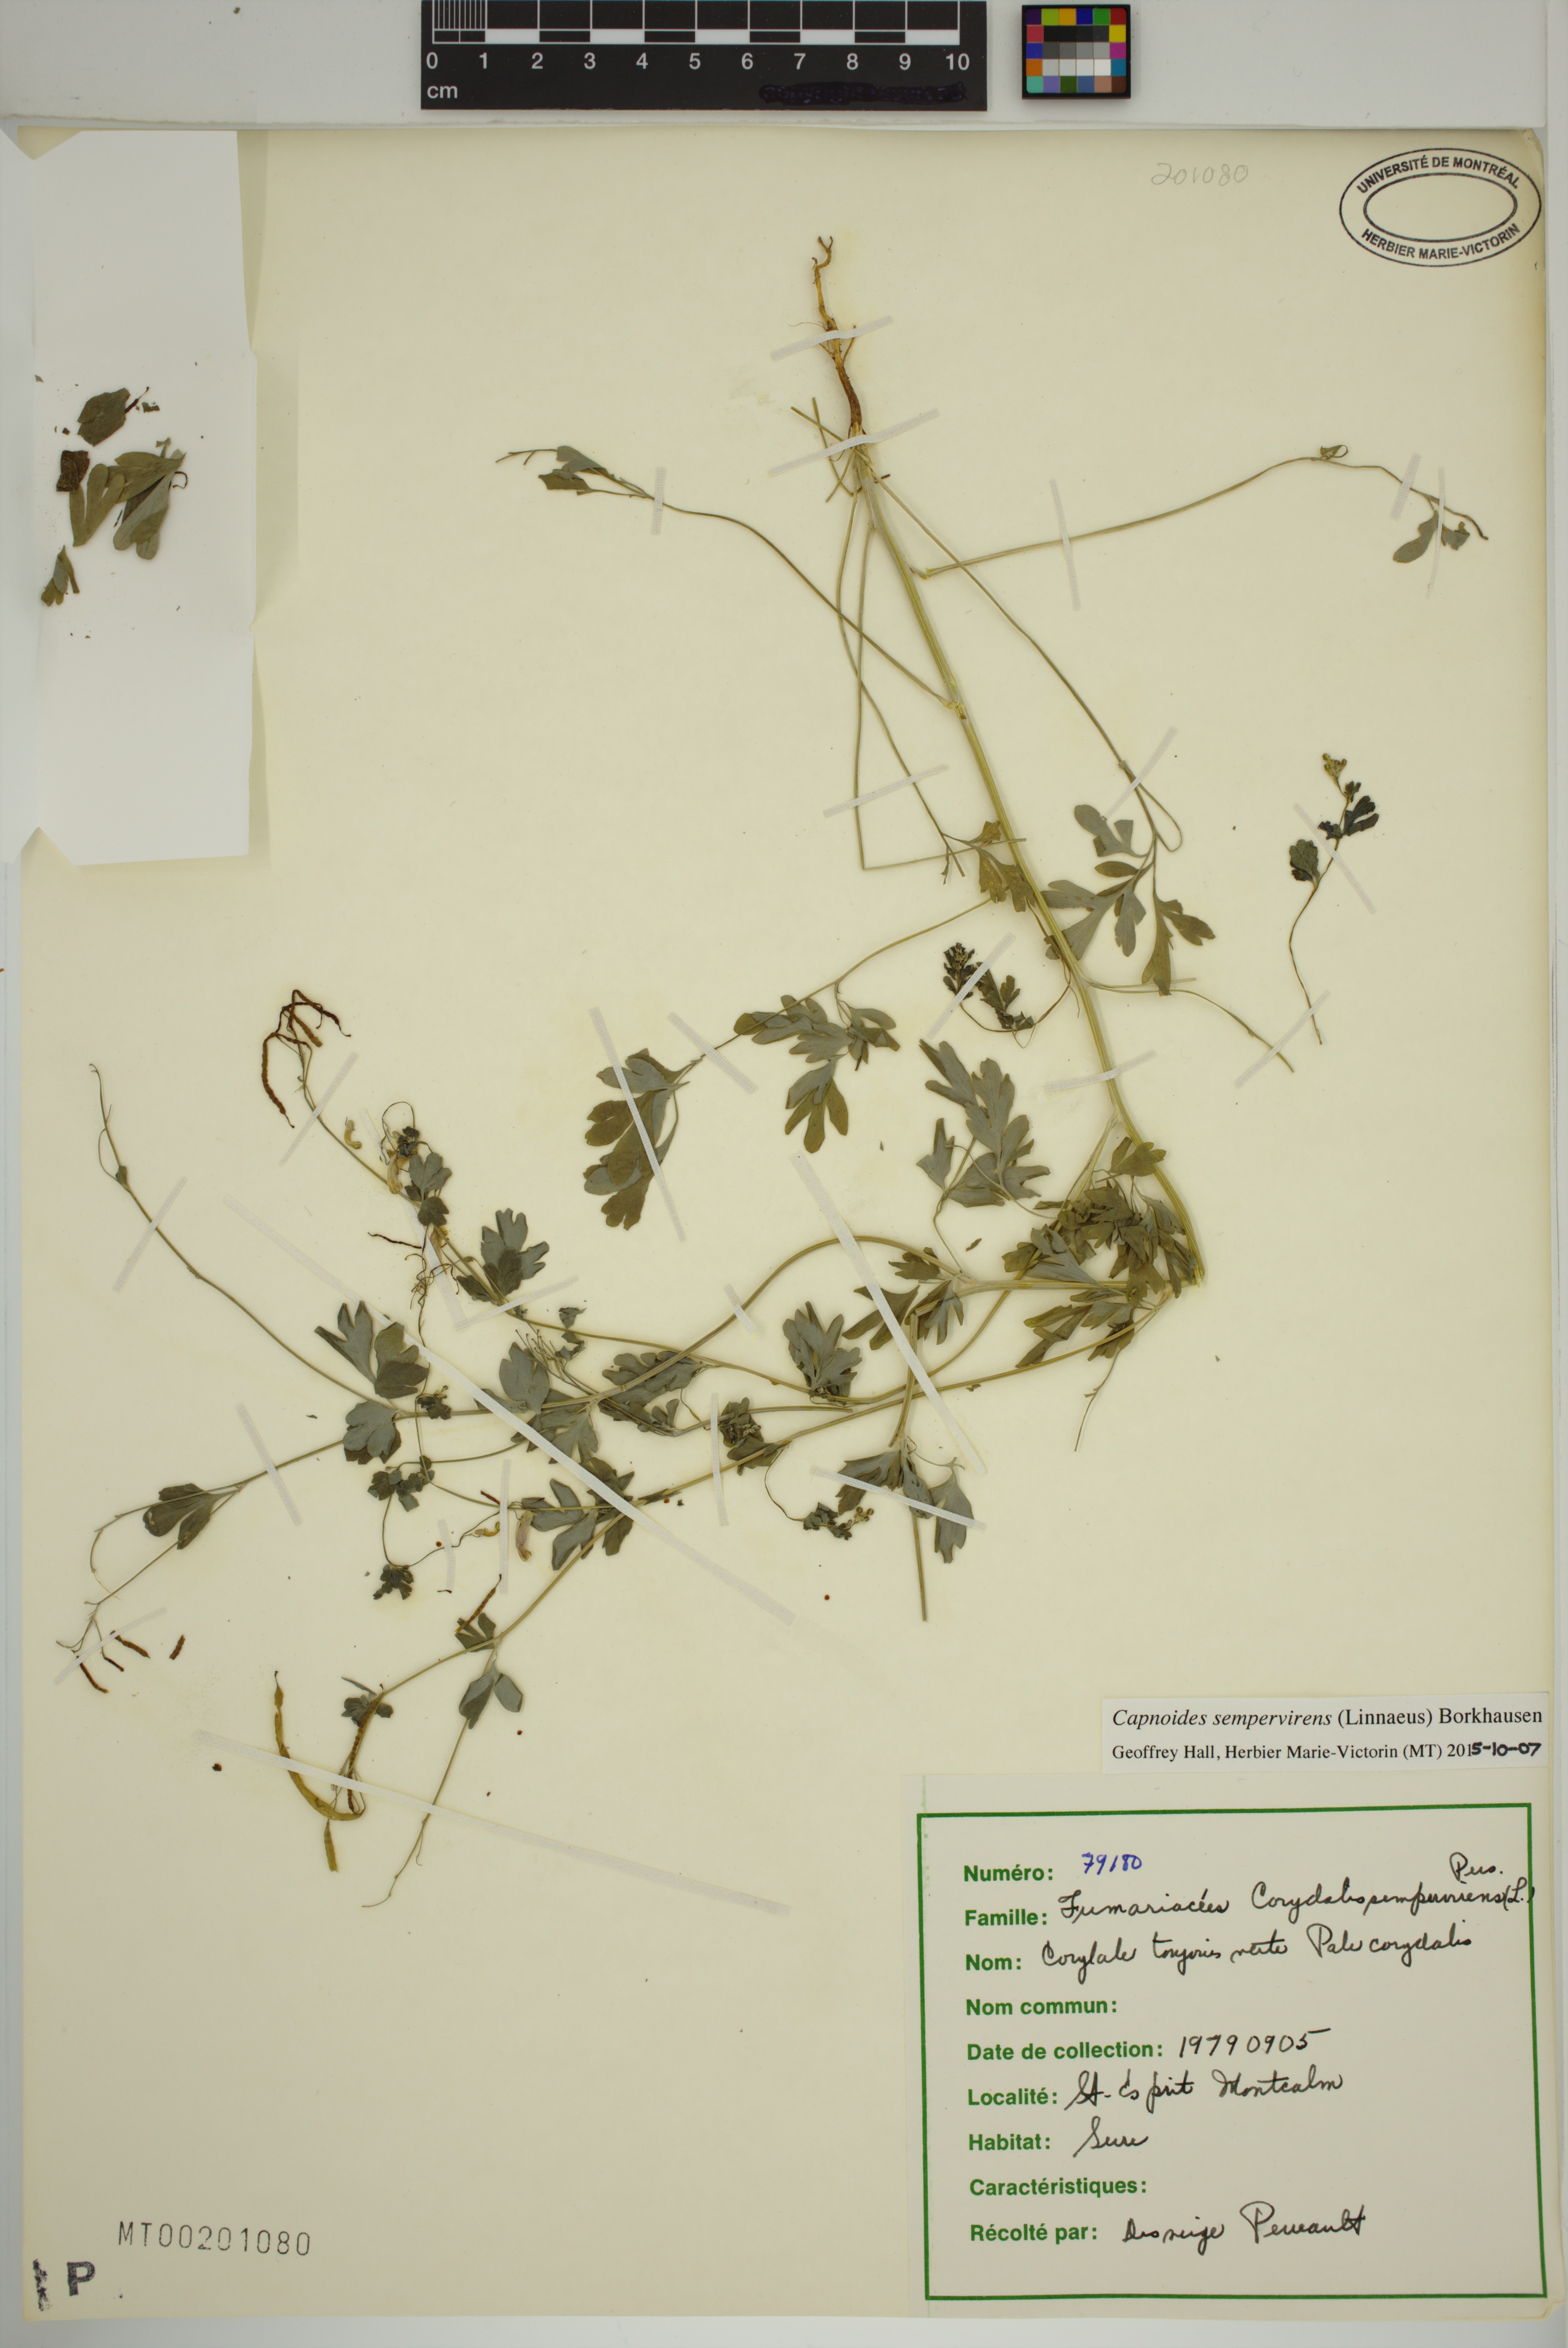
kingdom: Plantae
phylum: Tracheophyta
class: Magnoliopsida
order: Ranunculales
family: Papaveraceae
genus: Capnoides
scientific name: Capnoides sempervirens
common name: Rock harlequin
